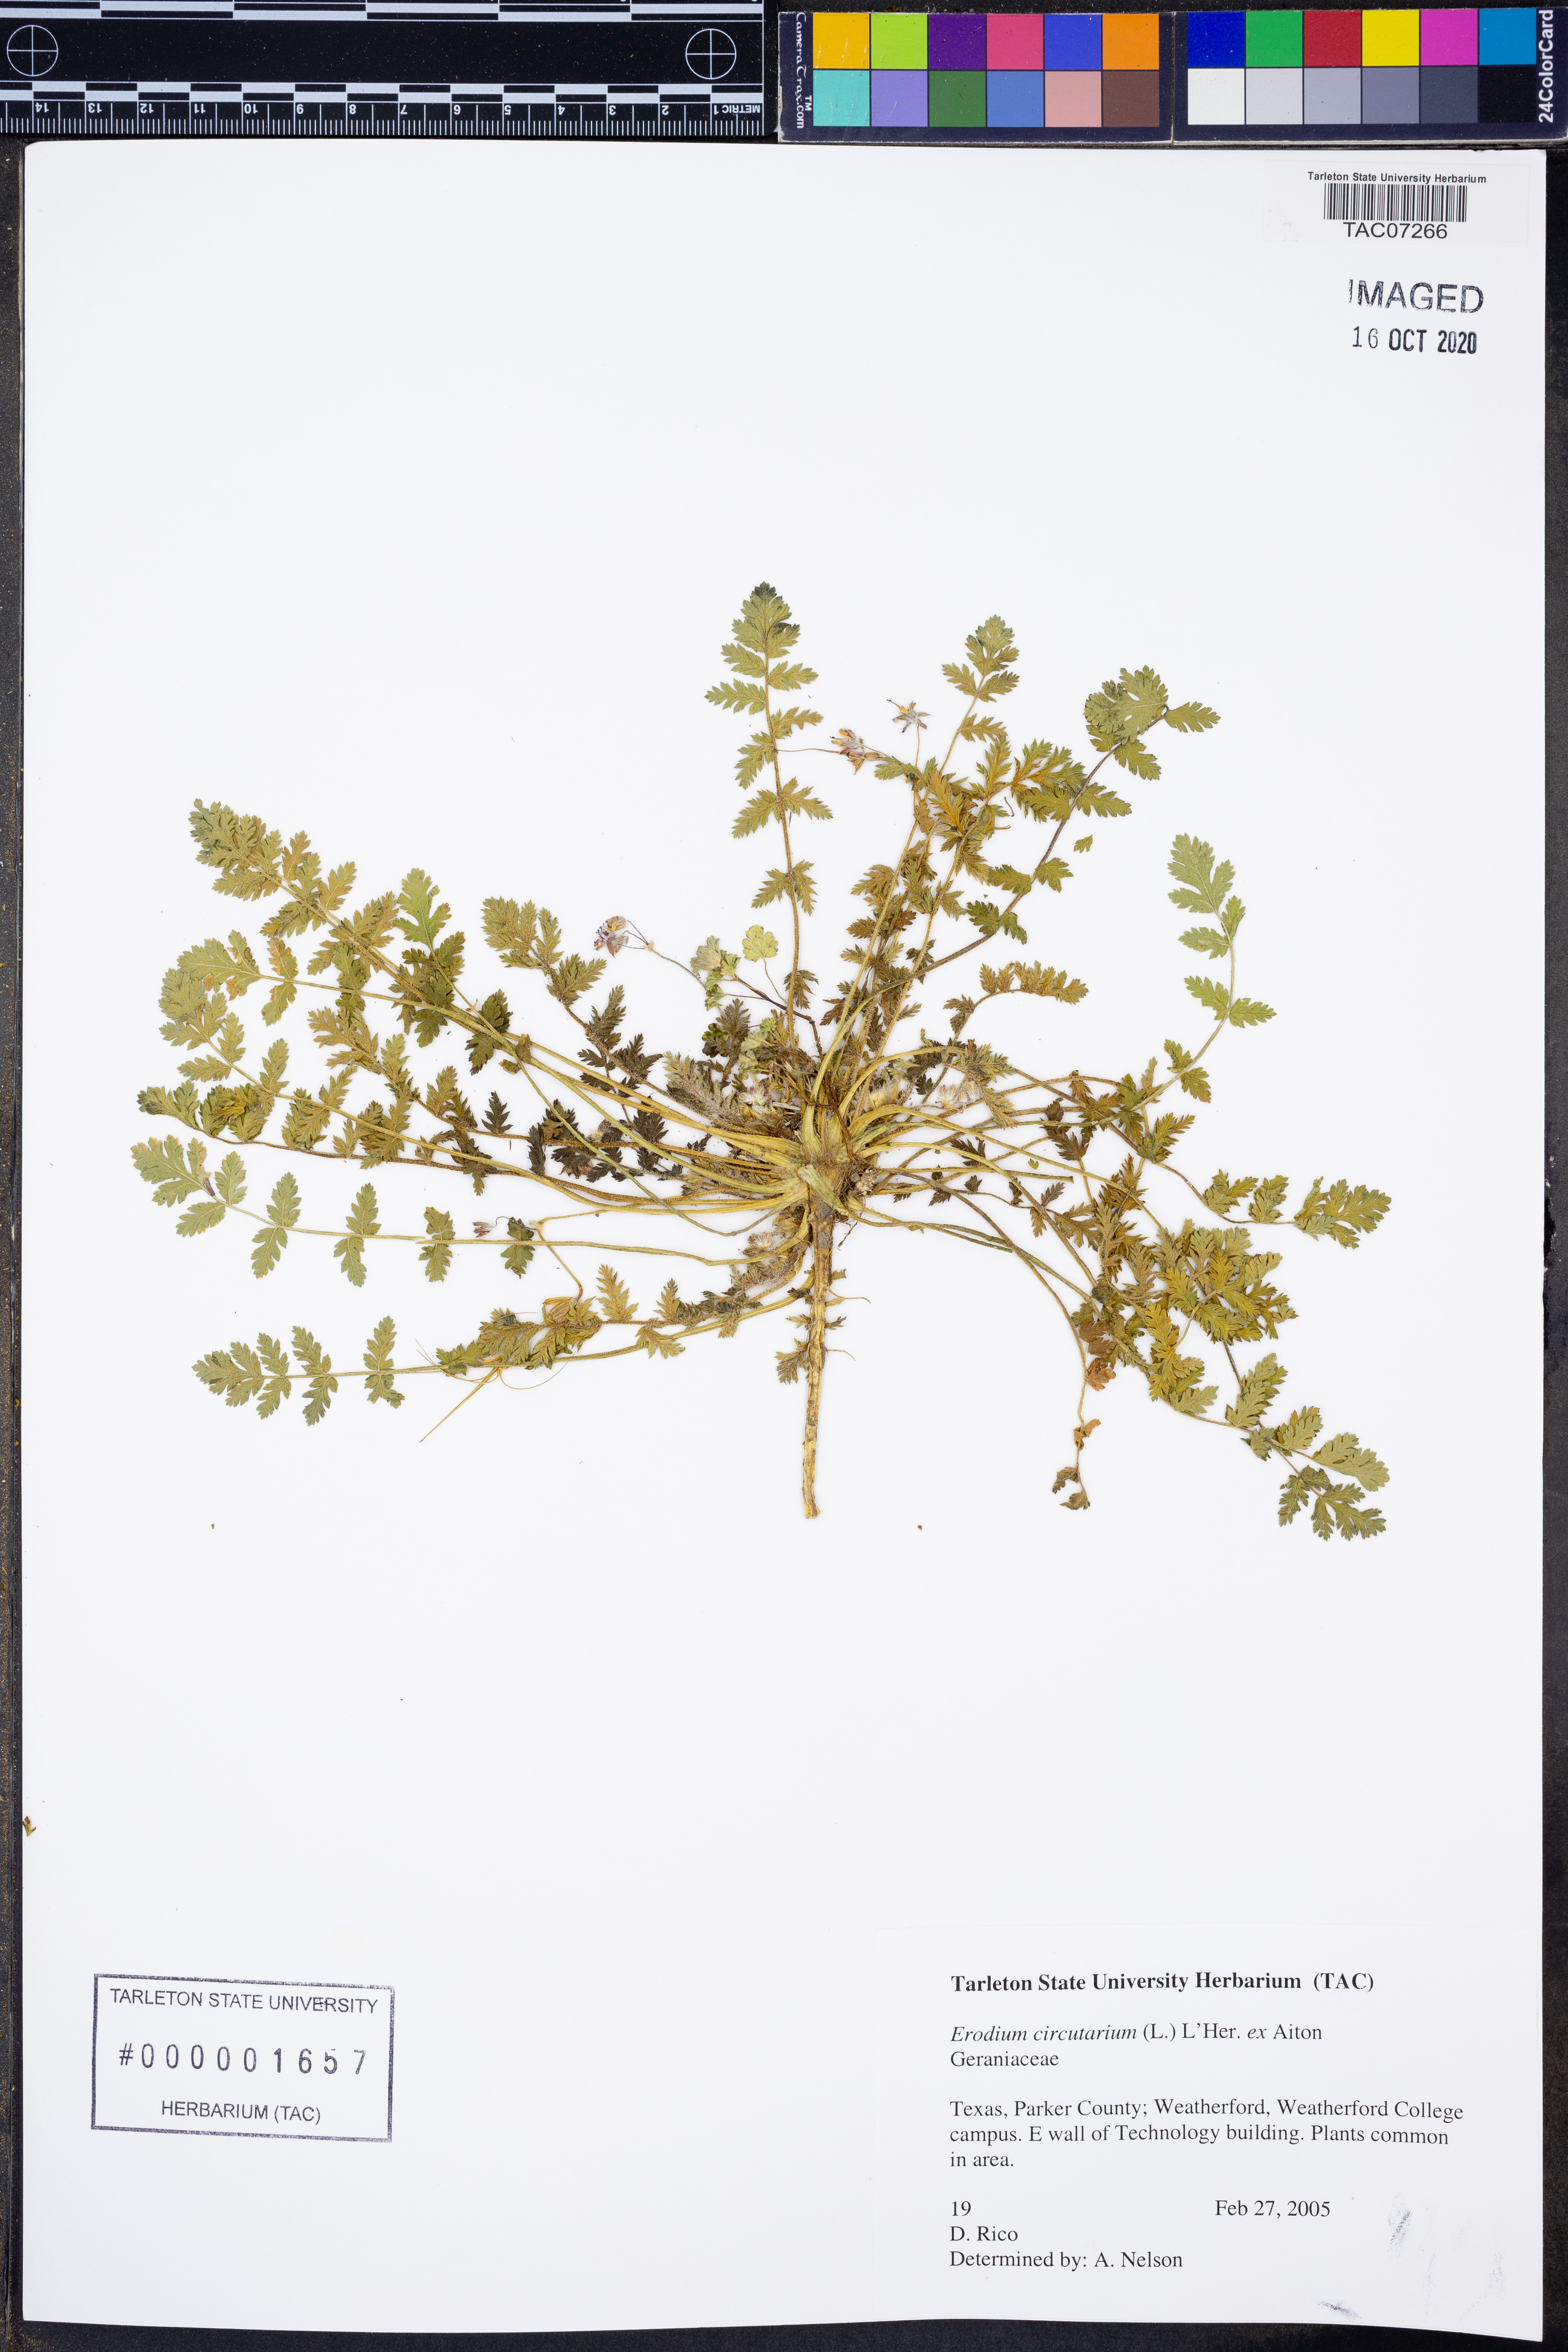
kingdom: Plantae
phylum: Tracheophyta
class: Magnoliopsida
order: Geraniales
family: Geraniaceae
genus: Erodium
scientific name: Erodium cicutarium
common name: Common stork's-bill
